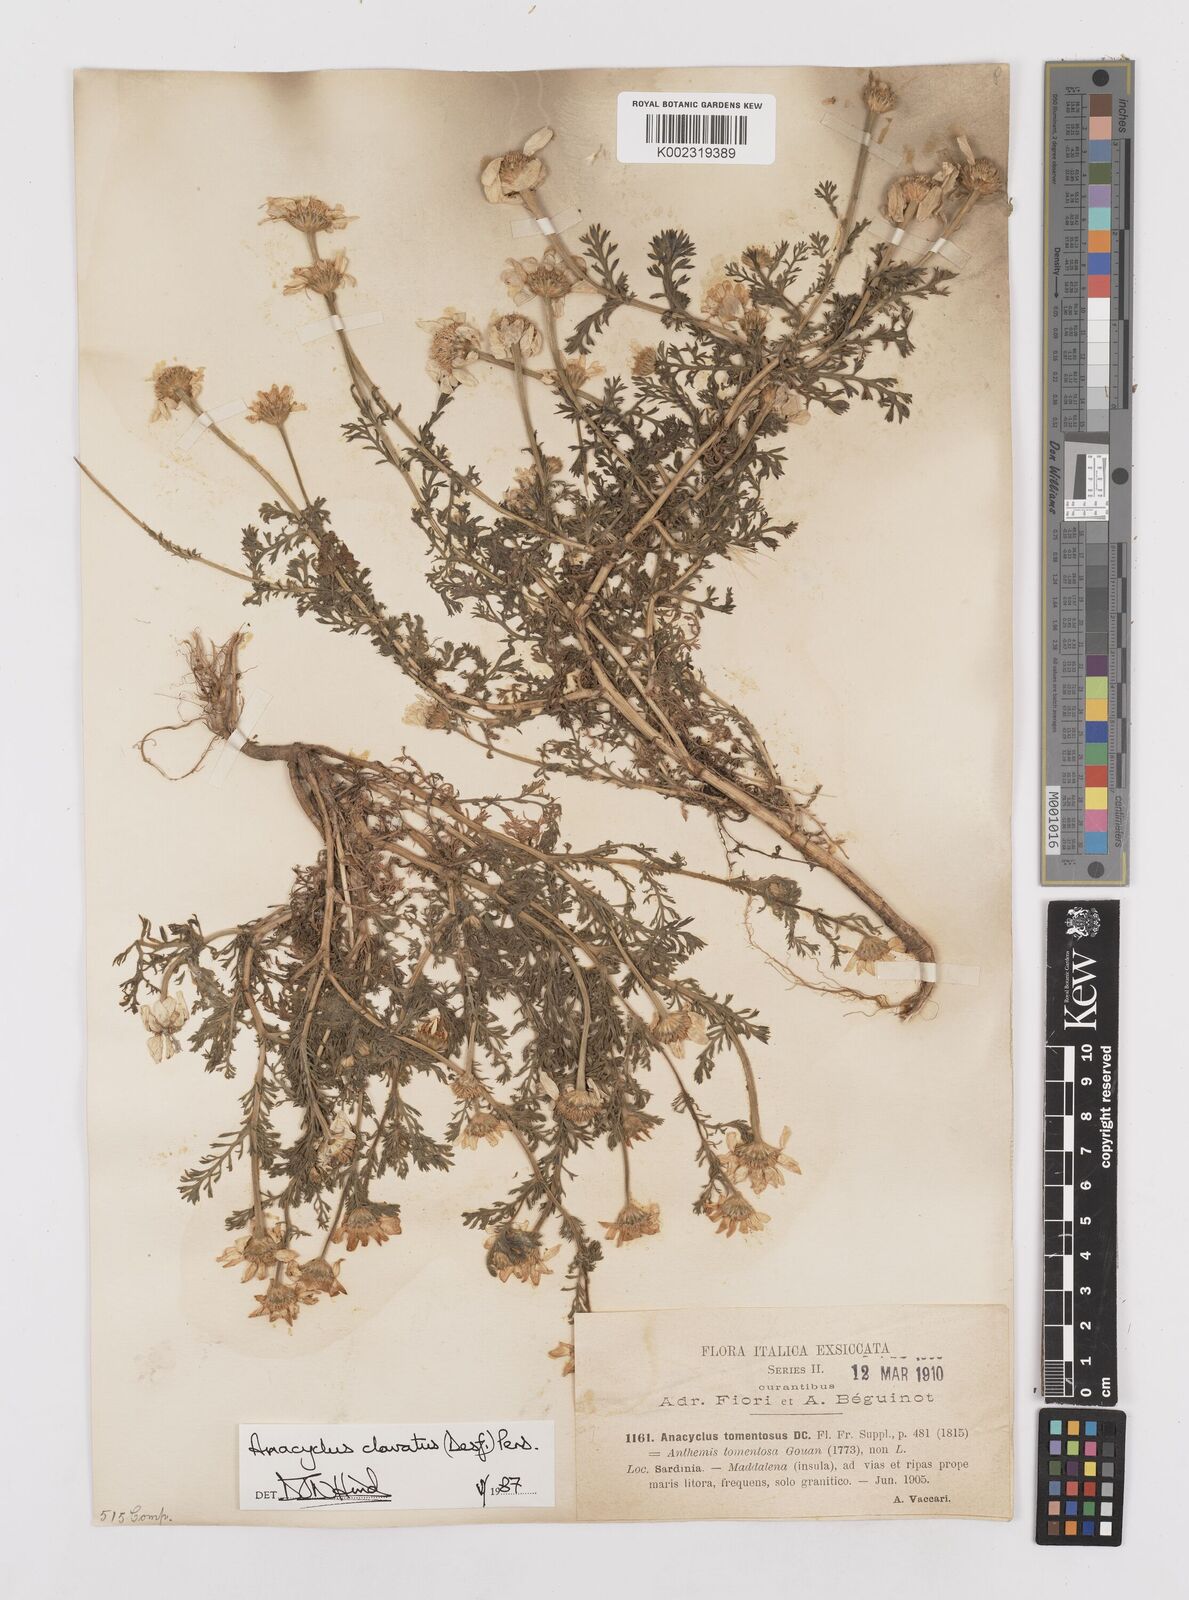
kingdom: Plantae
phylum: Tracheophyta
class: Magnoliopsida
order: Asterales
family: Asteraceae
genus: Anacyclus
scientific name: Anacyclus clavatus
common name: Whitebuttons
